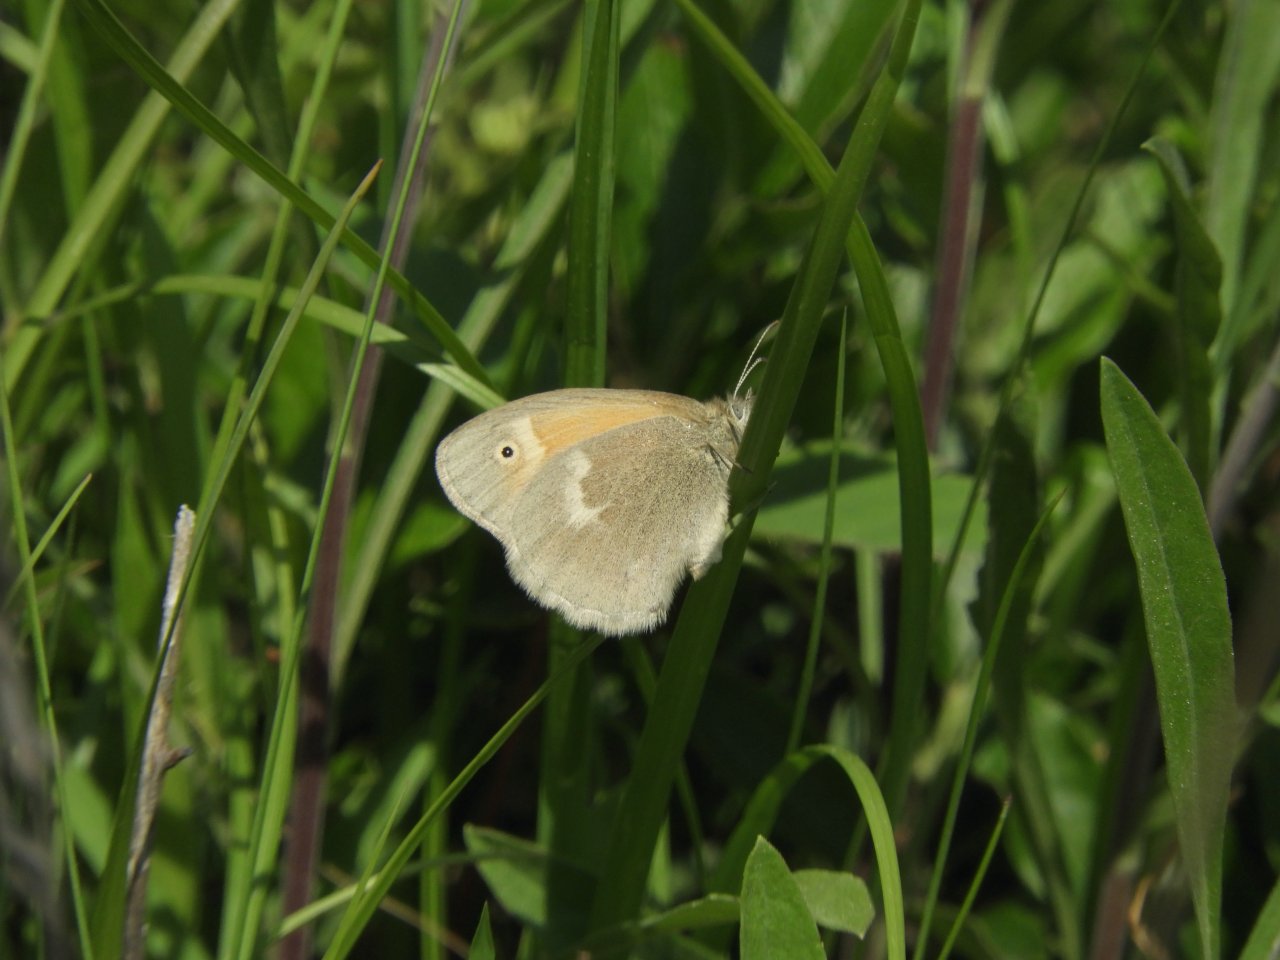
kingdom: Animalia
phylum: Arthropoda
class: Insecta
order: Lepidoptera
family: Nymphalidae
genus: Coenonympha
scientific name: Coenonympha tullia
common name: Large Heath
